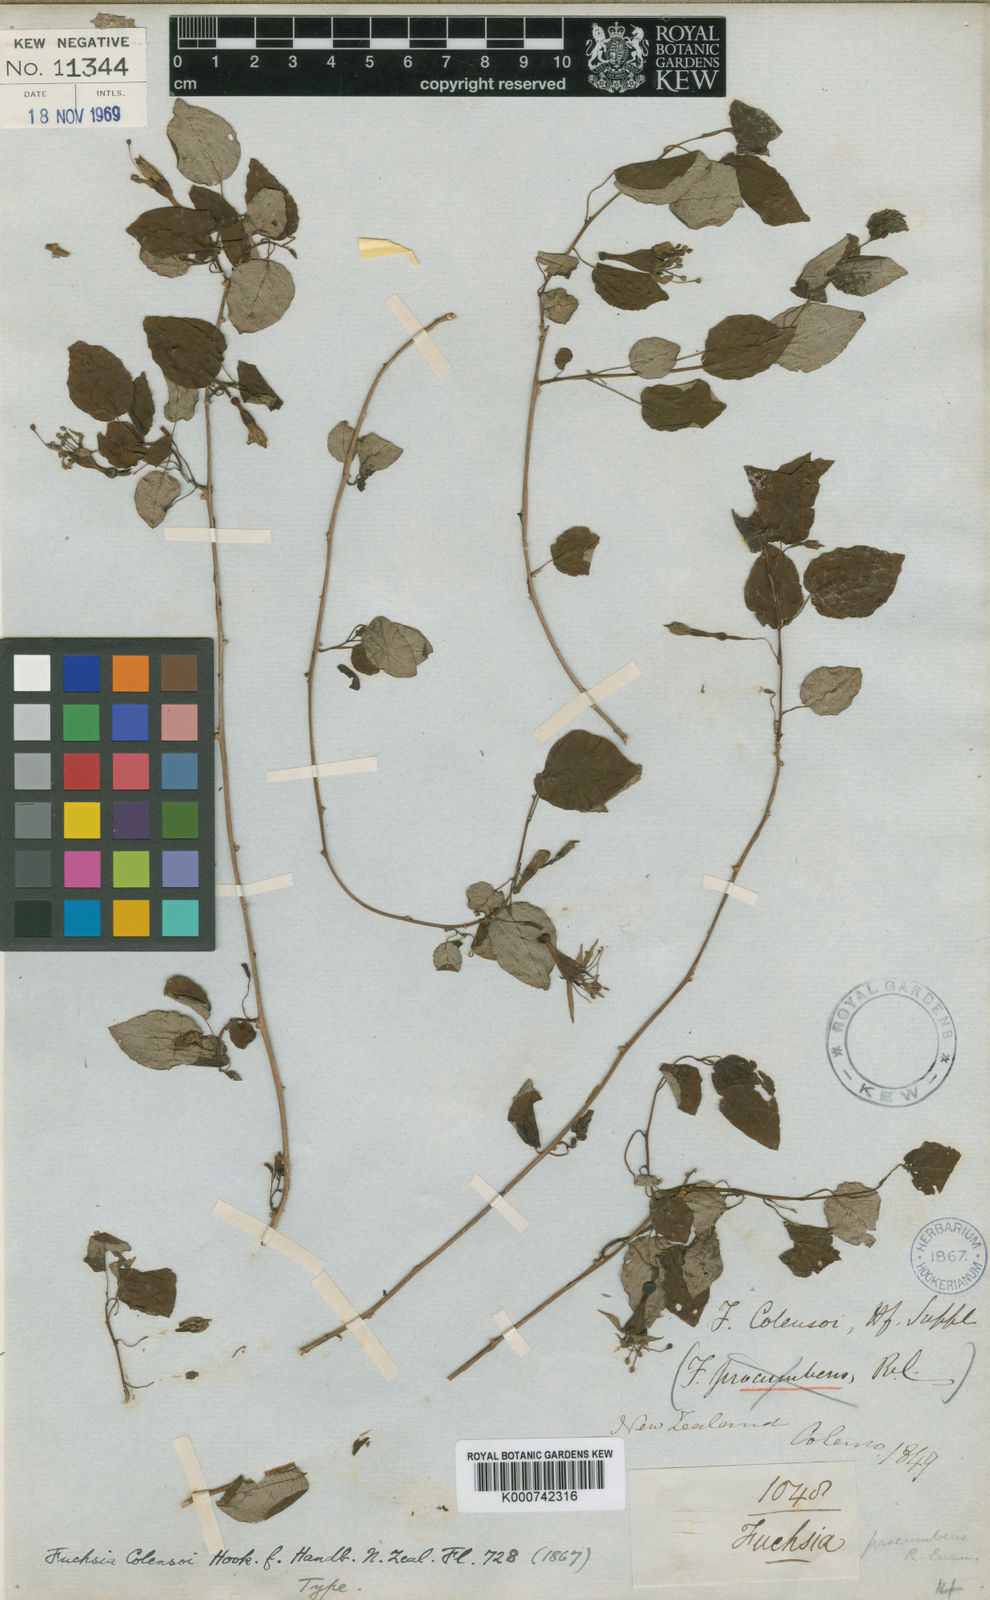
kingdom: Plantae
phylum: Tracheophyta
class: Magnoliopsida
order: Myrtales
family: Onagraceae
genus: Fuchsia
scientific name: Fuchsia colensoi
